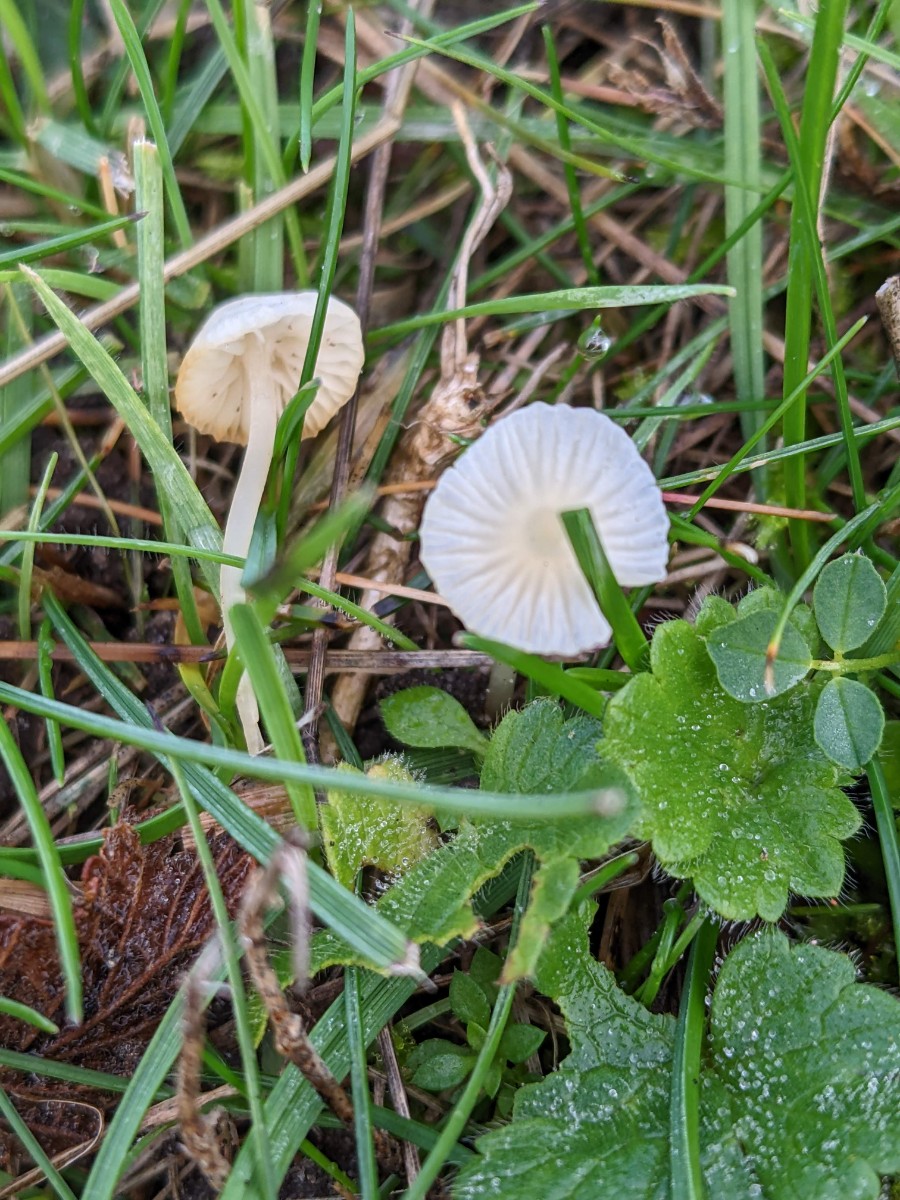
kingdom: Fungi
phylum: Basidiomycota
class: Agaricomycetes
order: Agaricales
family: Mycenaceae
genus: Atheniella
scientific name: Atheniella flavoalba
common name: gulhvid huesvamp
